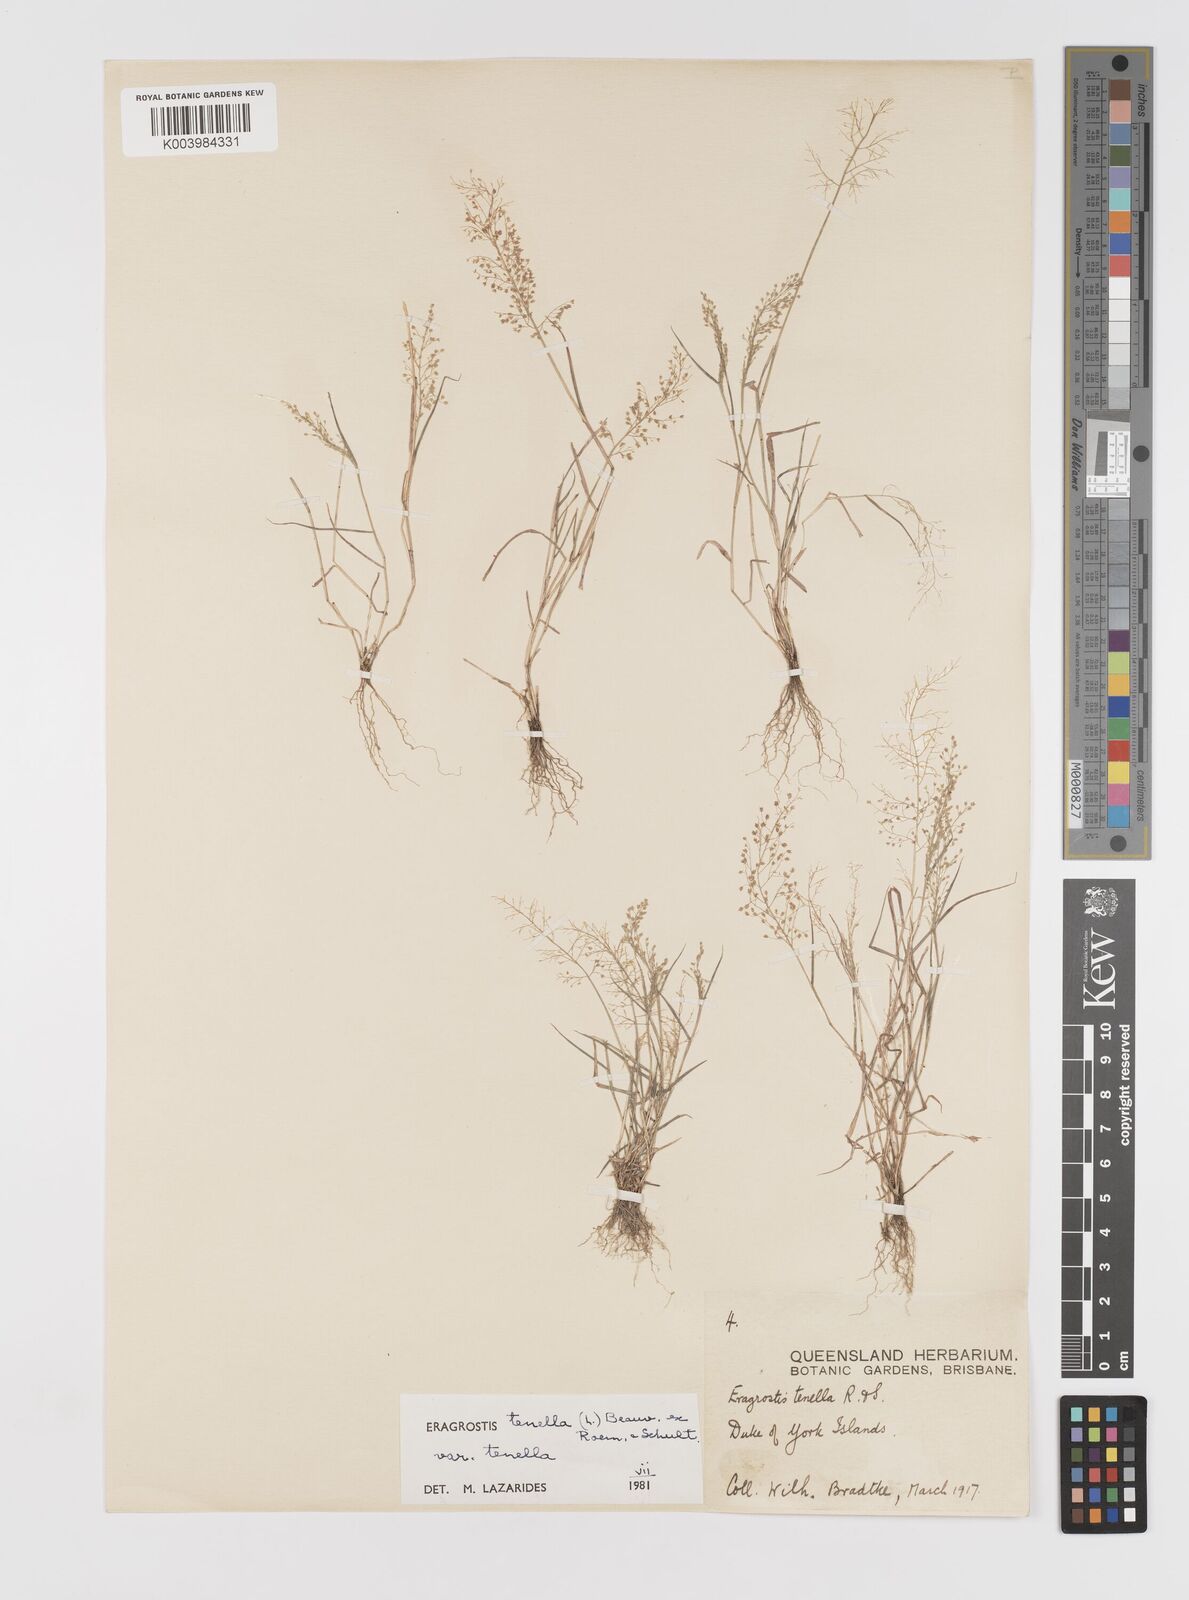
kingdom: Plantae
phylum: Tracheophyta
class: Liliopsida
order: Poales
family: Poaceae
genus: Eragrostis
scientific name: Eragrostis tenella
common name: Japanese lovegrass
